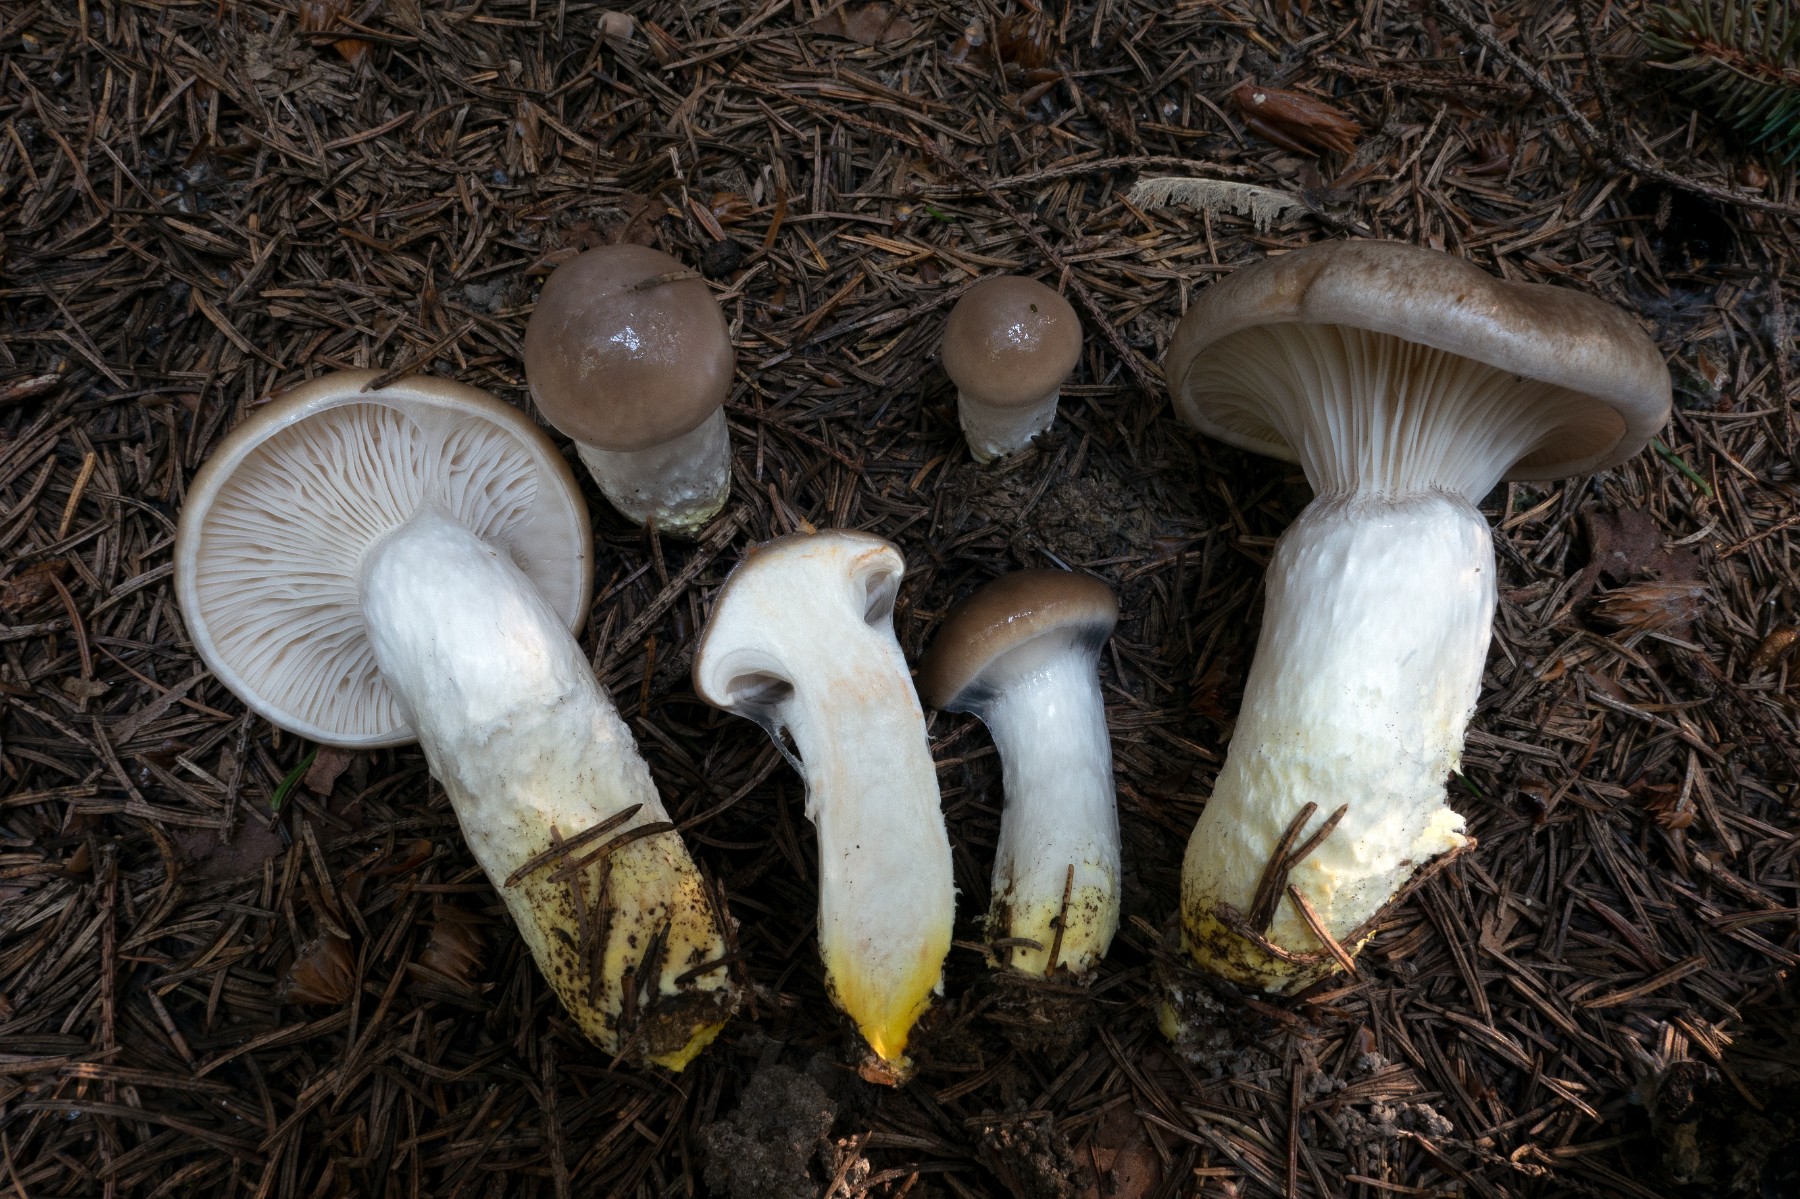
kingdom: Fungi
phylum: Basidiomycota
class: Agaricomycetes
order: Boletales
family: Gomphidiaceae
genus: Gomphidius
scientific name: Gomphidius glutinosus
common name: grå slimslør
